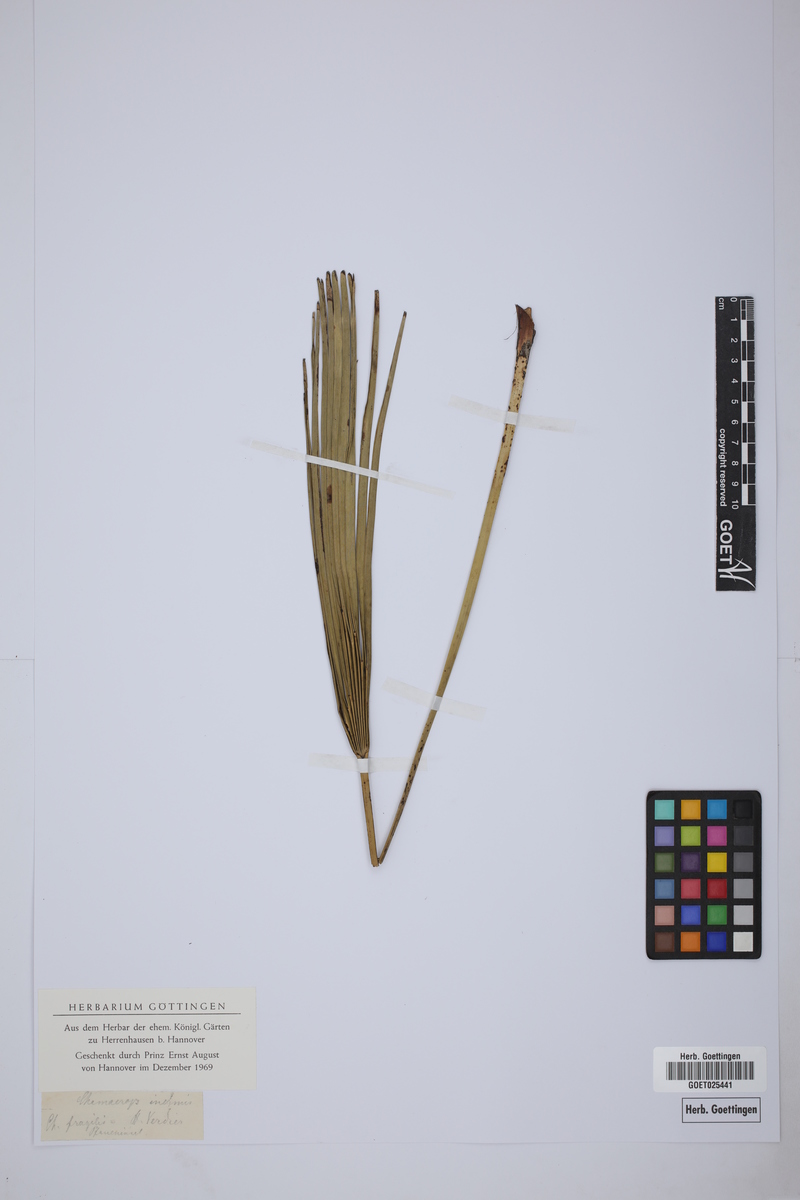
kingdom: Plantae
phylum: Tracheophyta
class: Liliopsida
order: Arecales
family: Arecaceae
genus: Chamaerops
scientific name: Chamaerops
